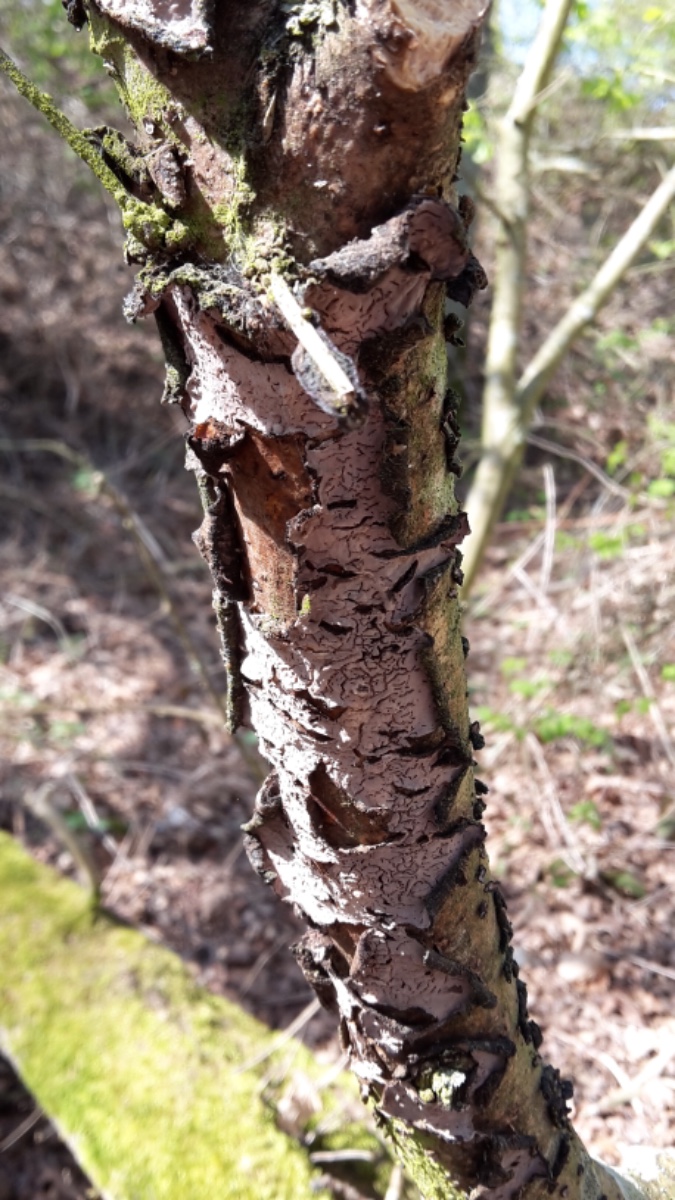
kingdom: Fungi
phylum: Basidiomycota
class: Agaricomycetes
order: Russulales
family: Peniophoraceae
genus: Peniophora
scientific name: Peniophora quercina
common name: ege-voksskind
